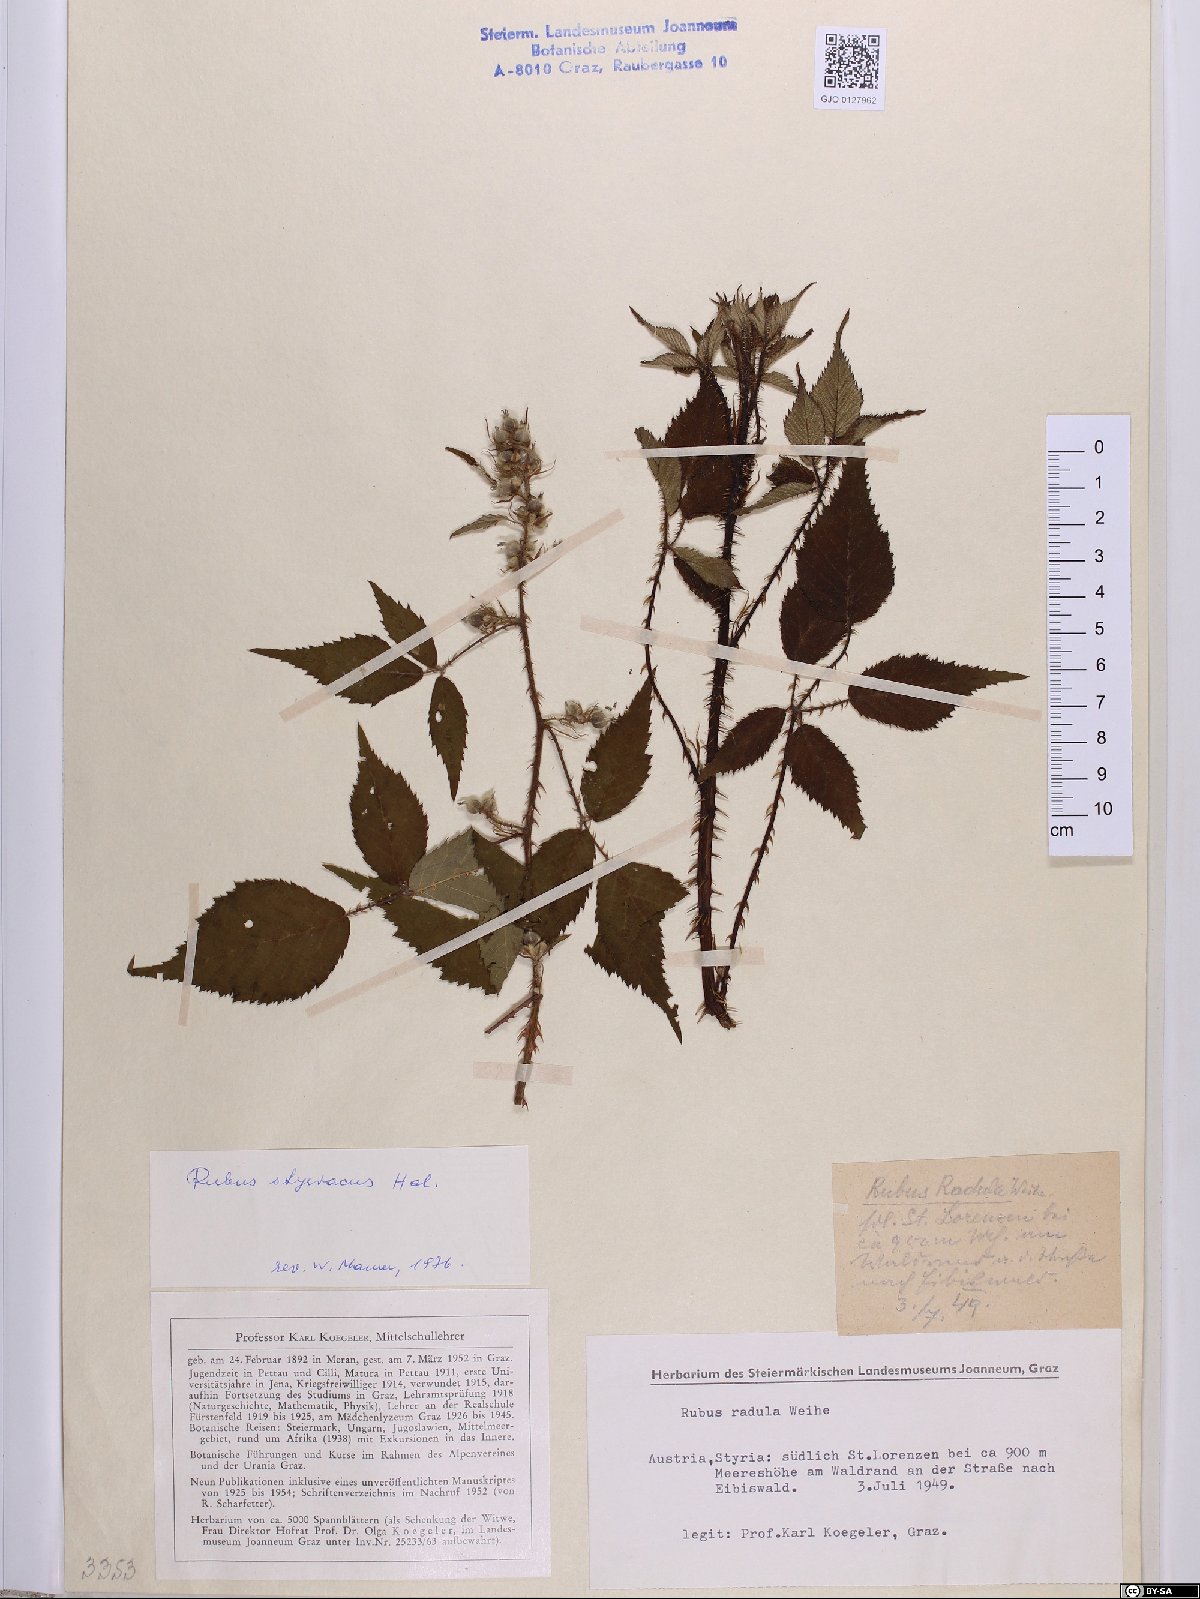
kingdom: Plantae
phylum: Tracheophyta
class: Magnoliopsida
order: Rosales
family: Rosaceae
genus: Rubus
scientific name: Rubus styriacus
